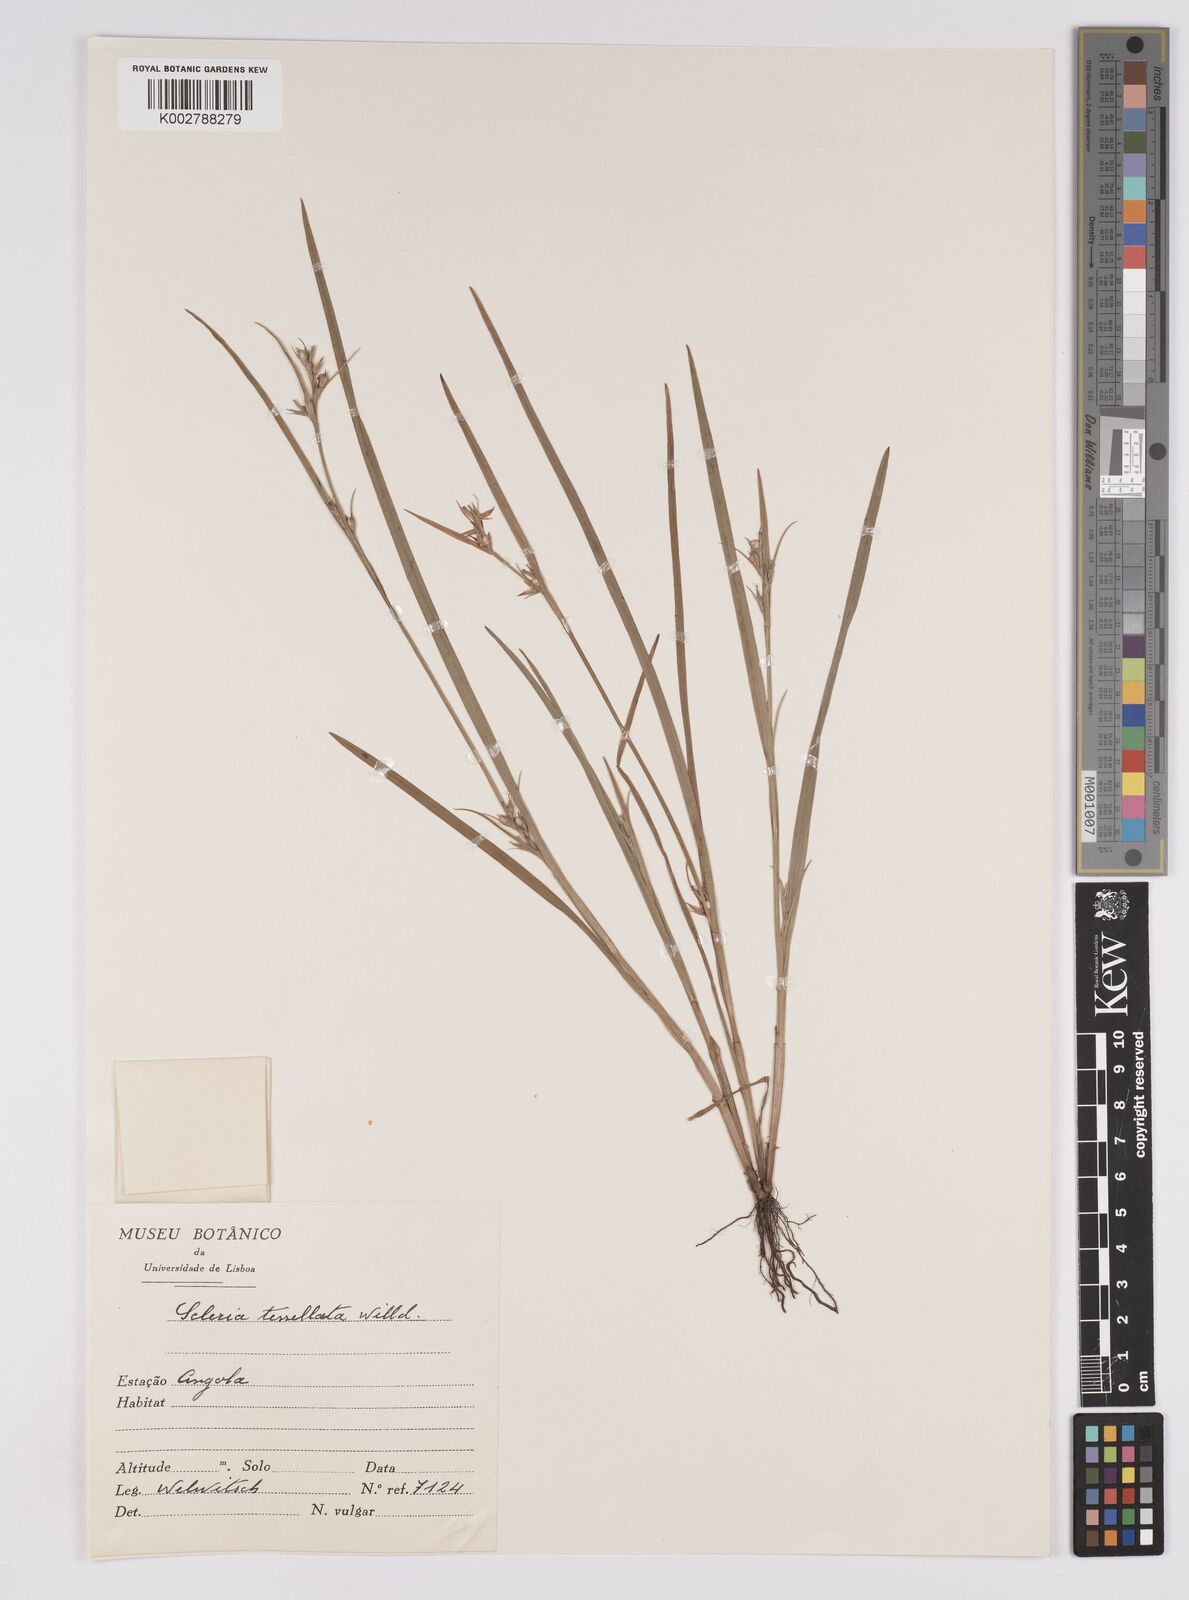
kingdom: Plantae
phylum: Tracheophyta
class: Liliopsida
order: Poales
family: Cyperaceae
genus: Scleria
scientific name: Scleria tessellata
